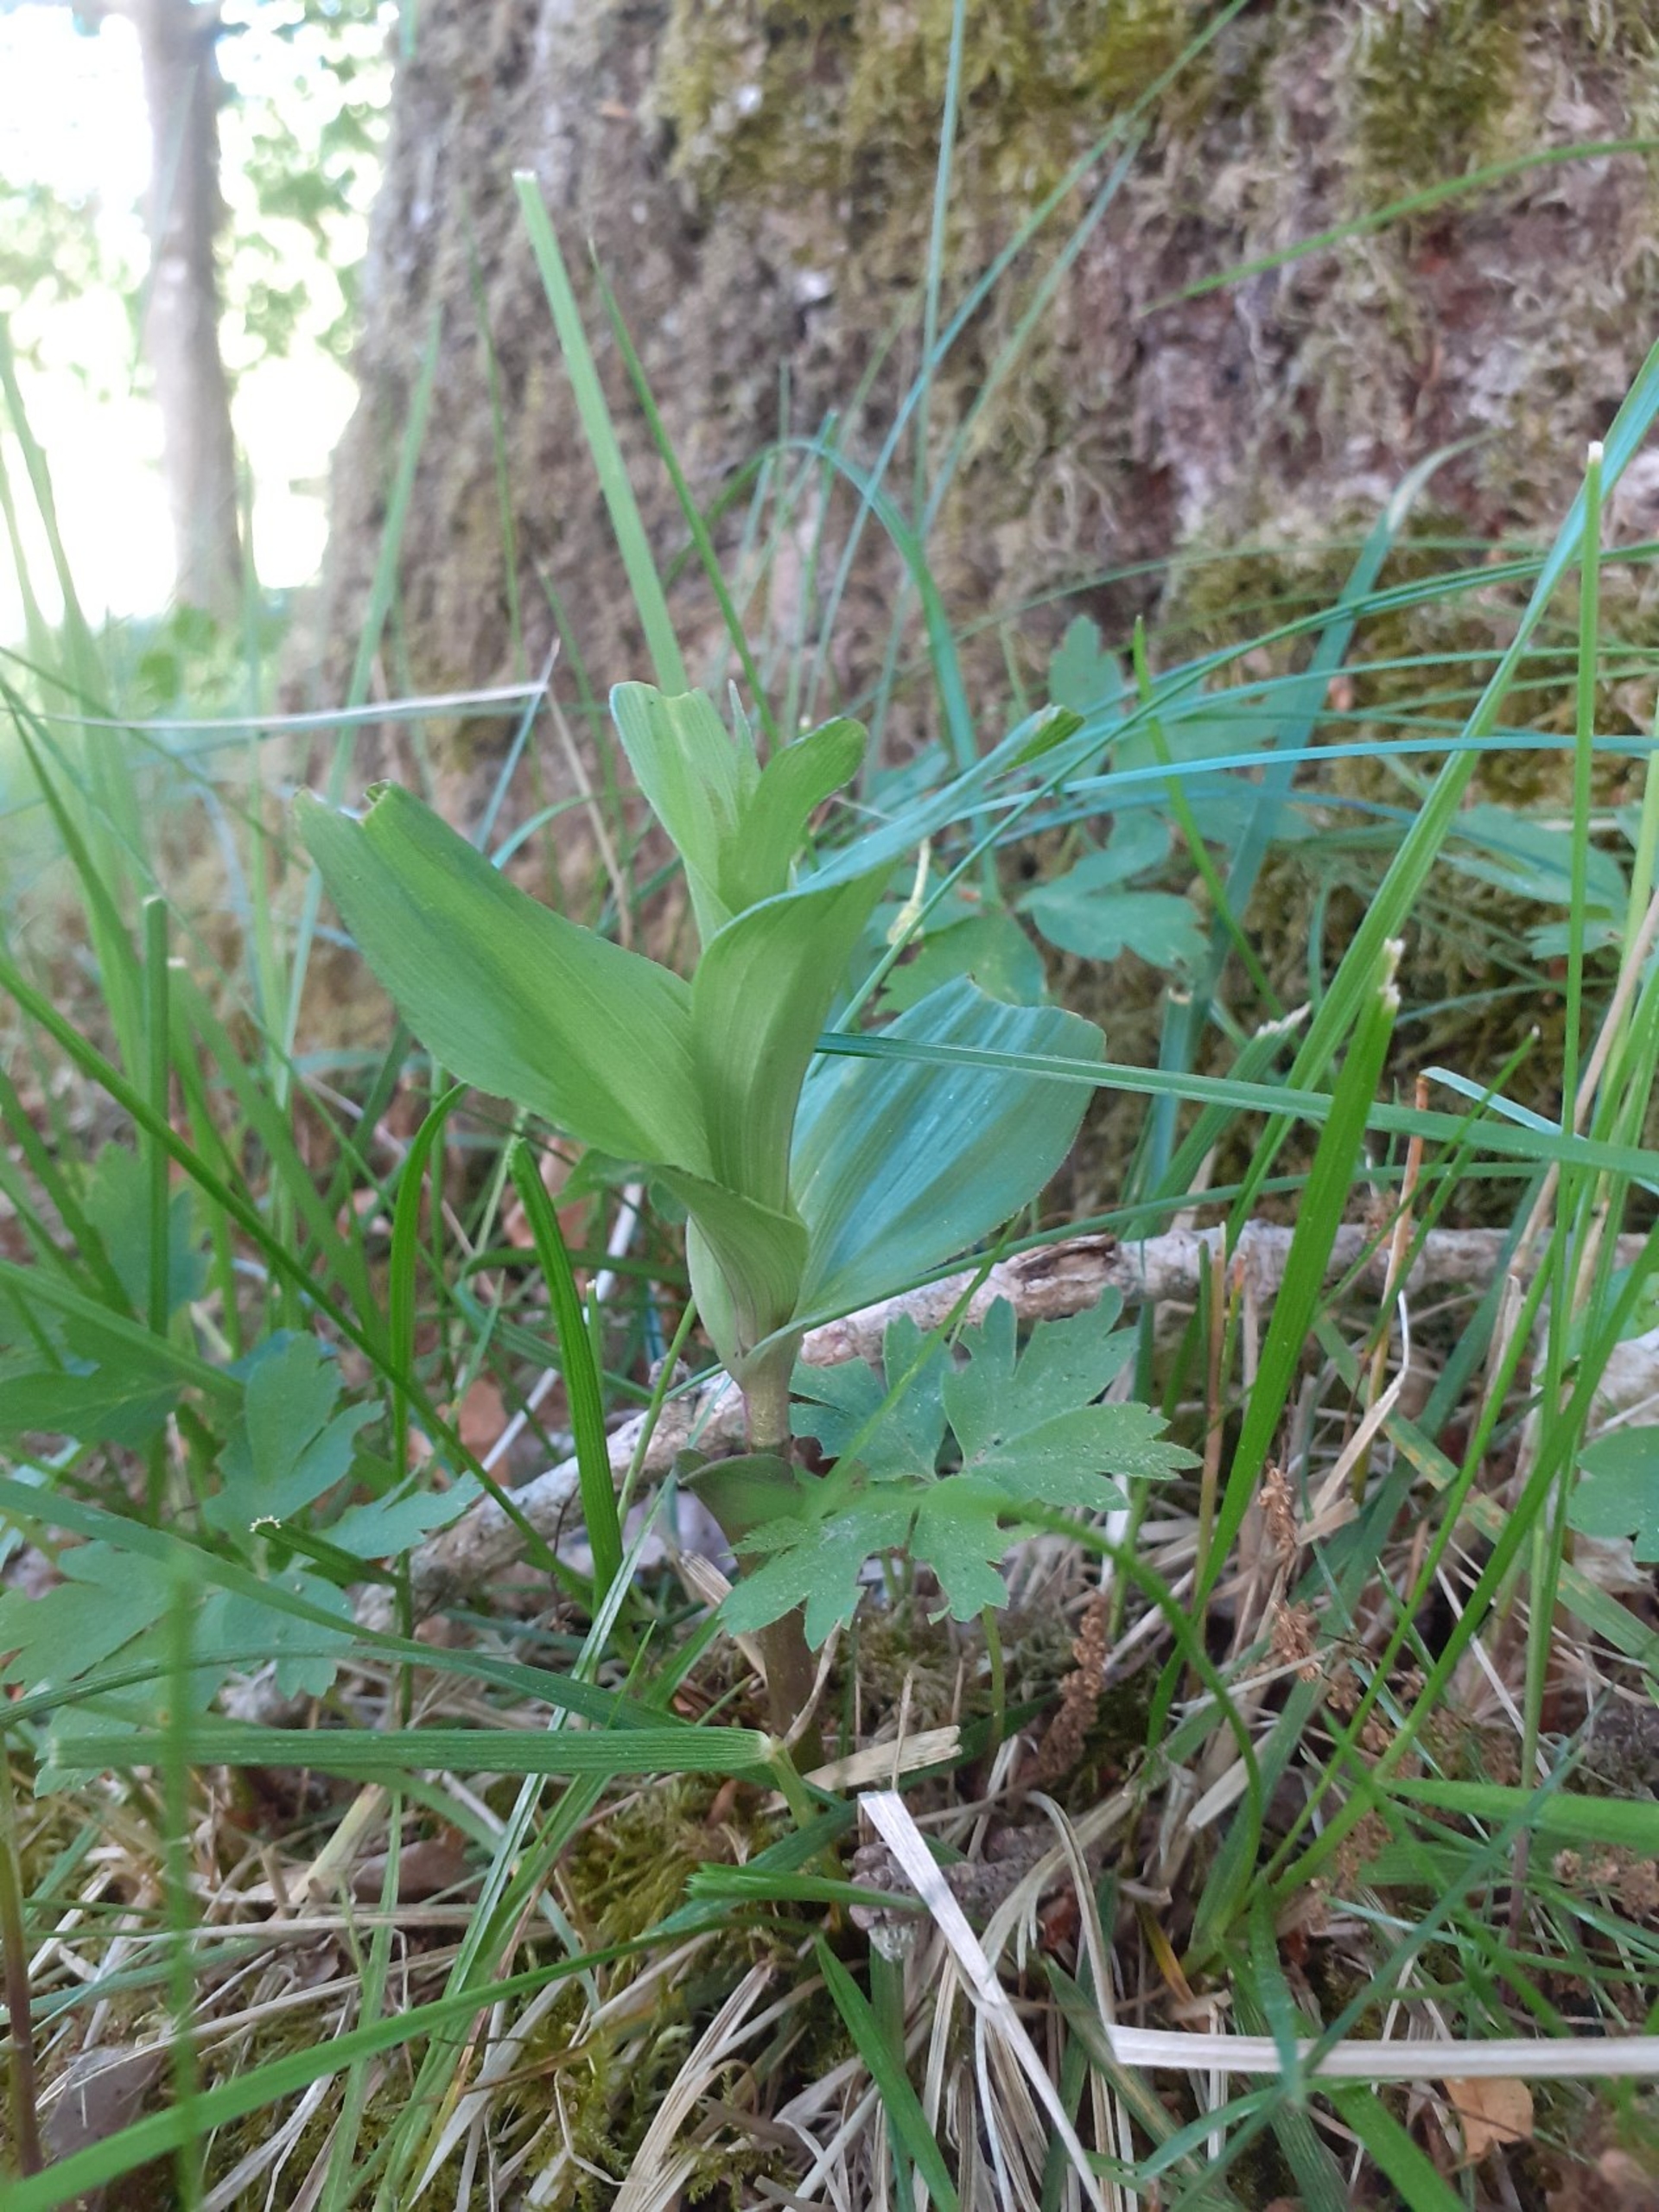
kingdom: Plantae
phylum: Tracheophyta
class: Liliopsida
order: Asparagales
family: Orchidaceae
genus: Epipactis
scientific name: Epipactis helleborine
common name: Skov-hullæbe
